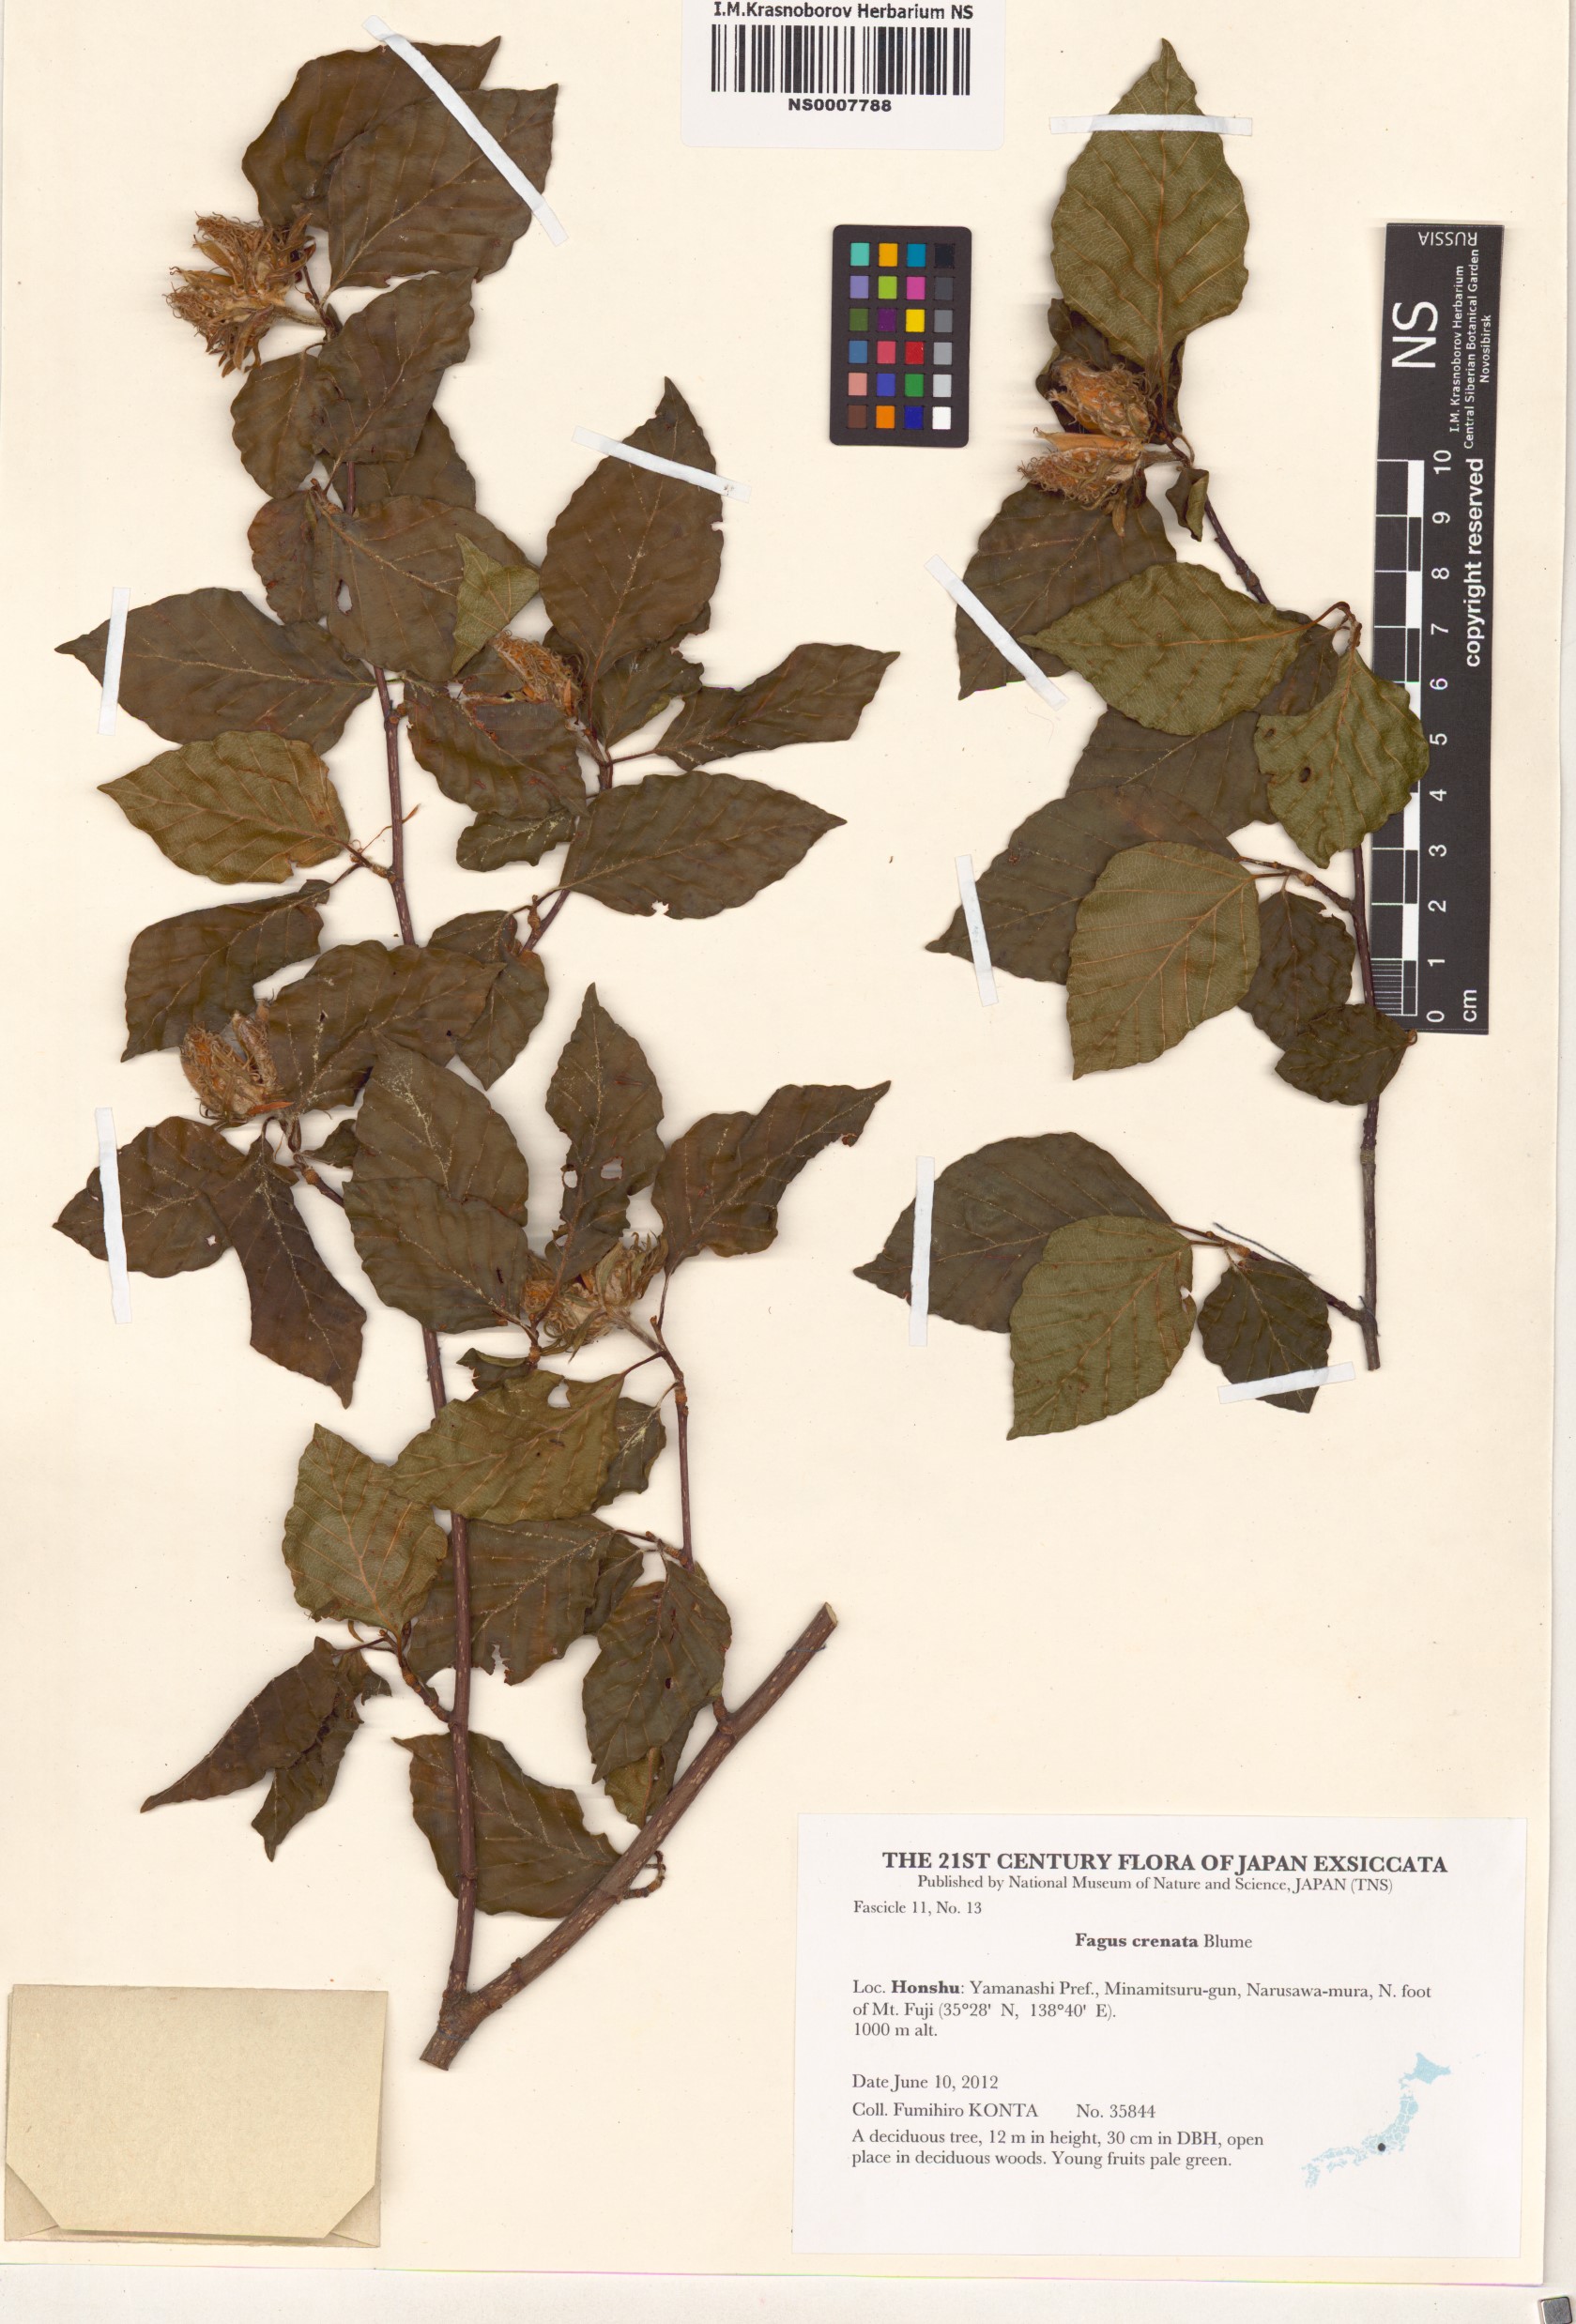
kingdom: Plantae
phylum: Tracheophyta
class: Magnoliopsida
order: Fagales
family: Fagaceae
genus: Fagus
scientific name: Fagus crenata
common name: Japanese beech
